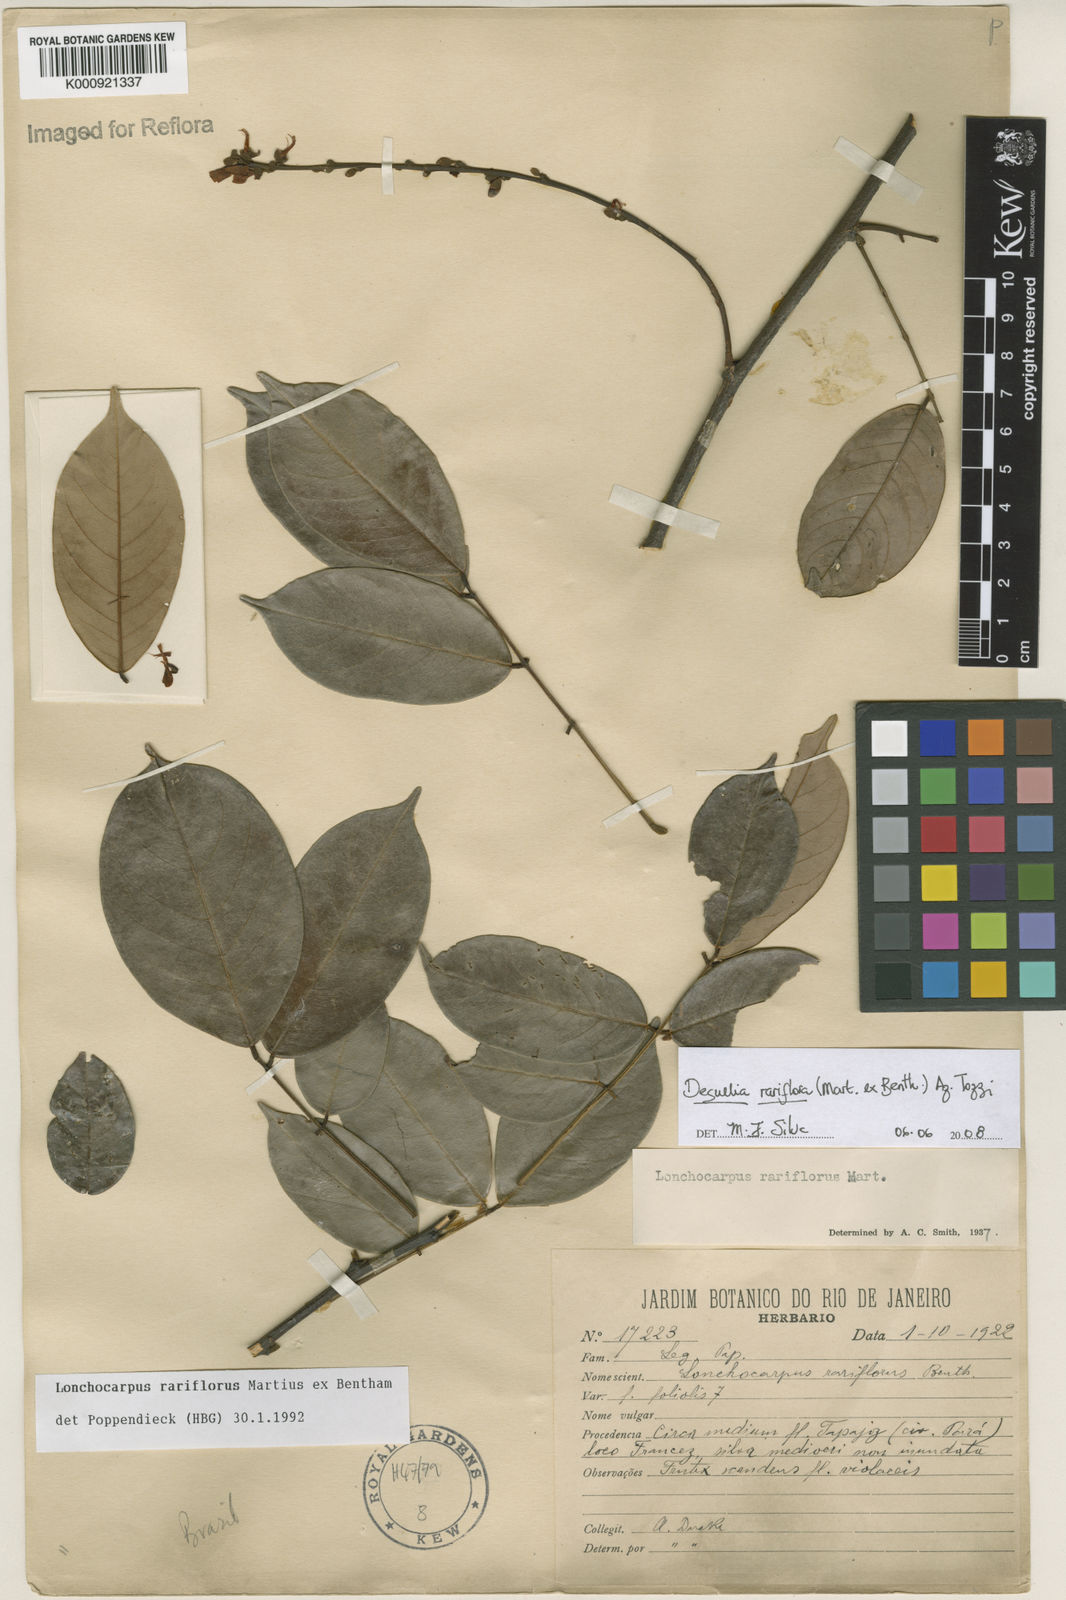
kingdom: Plantae
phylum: Tracheophyta
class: Magnoliopsida
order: Fabales
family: Fabaceae
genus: Deguelia
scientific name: Deguelia
